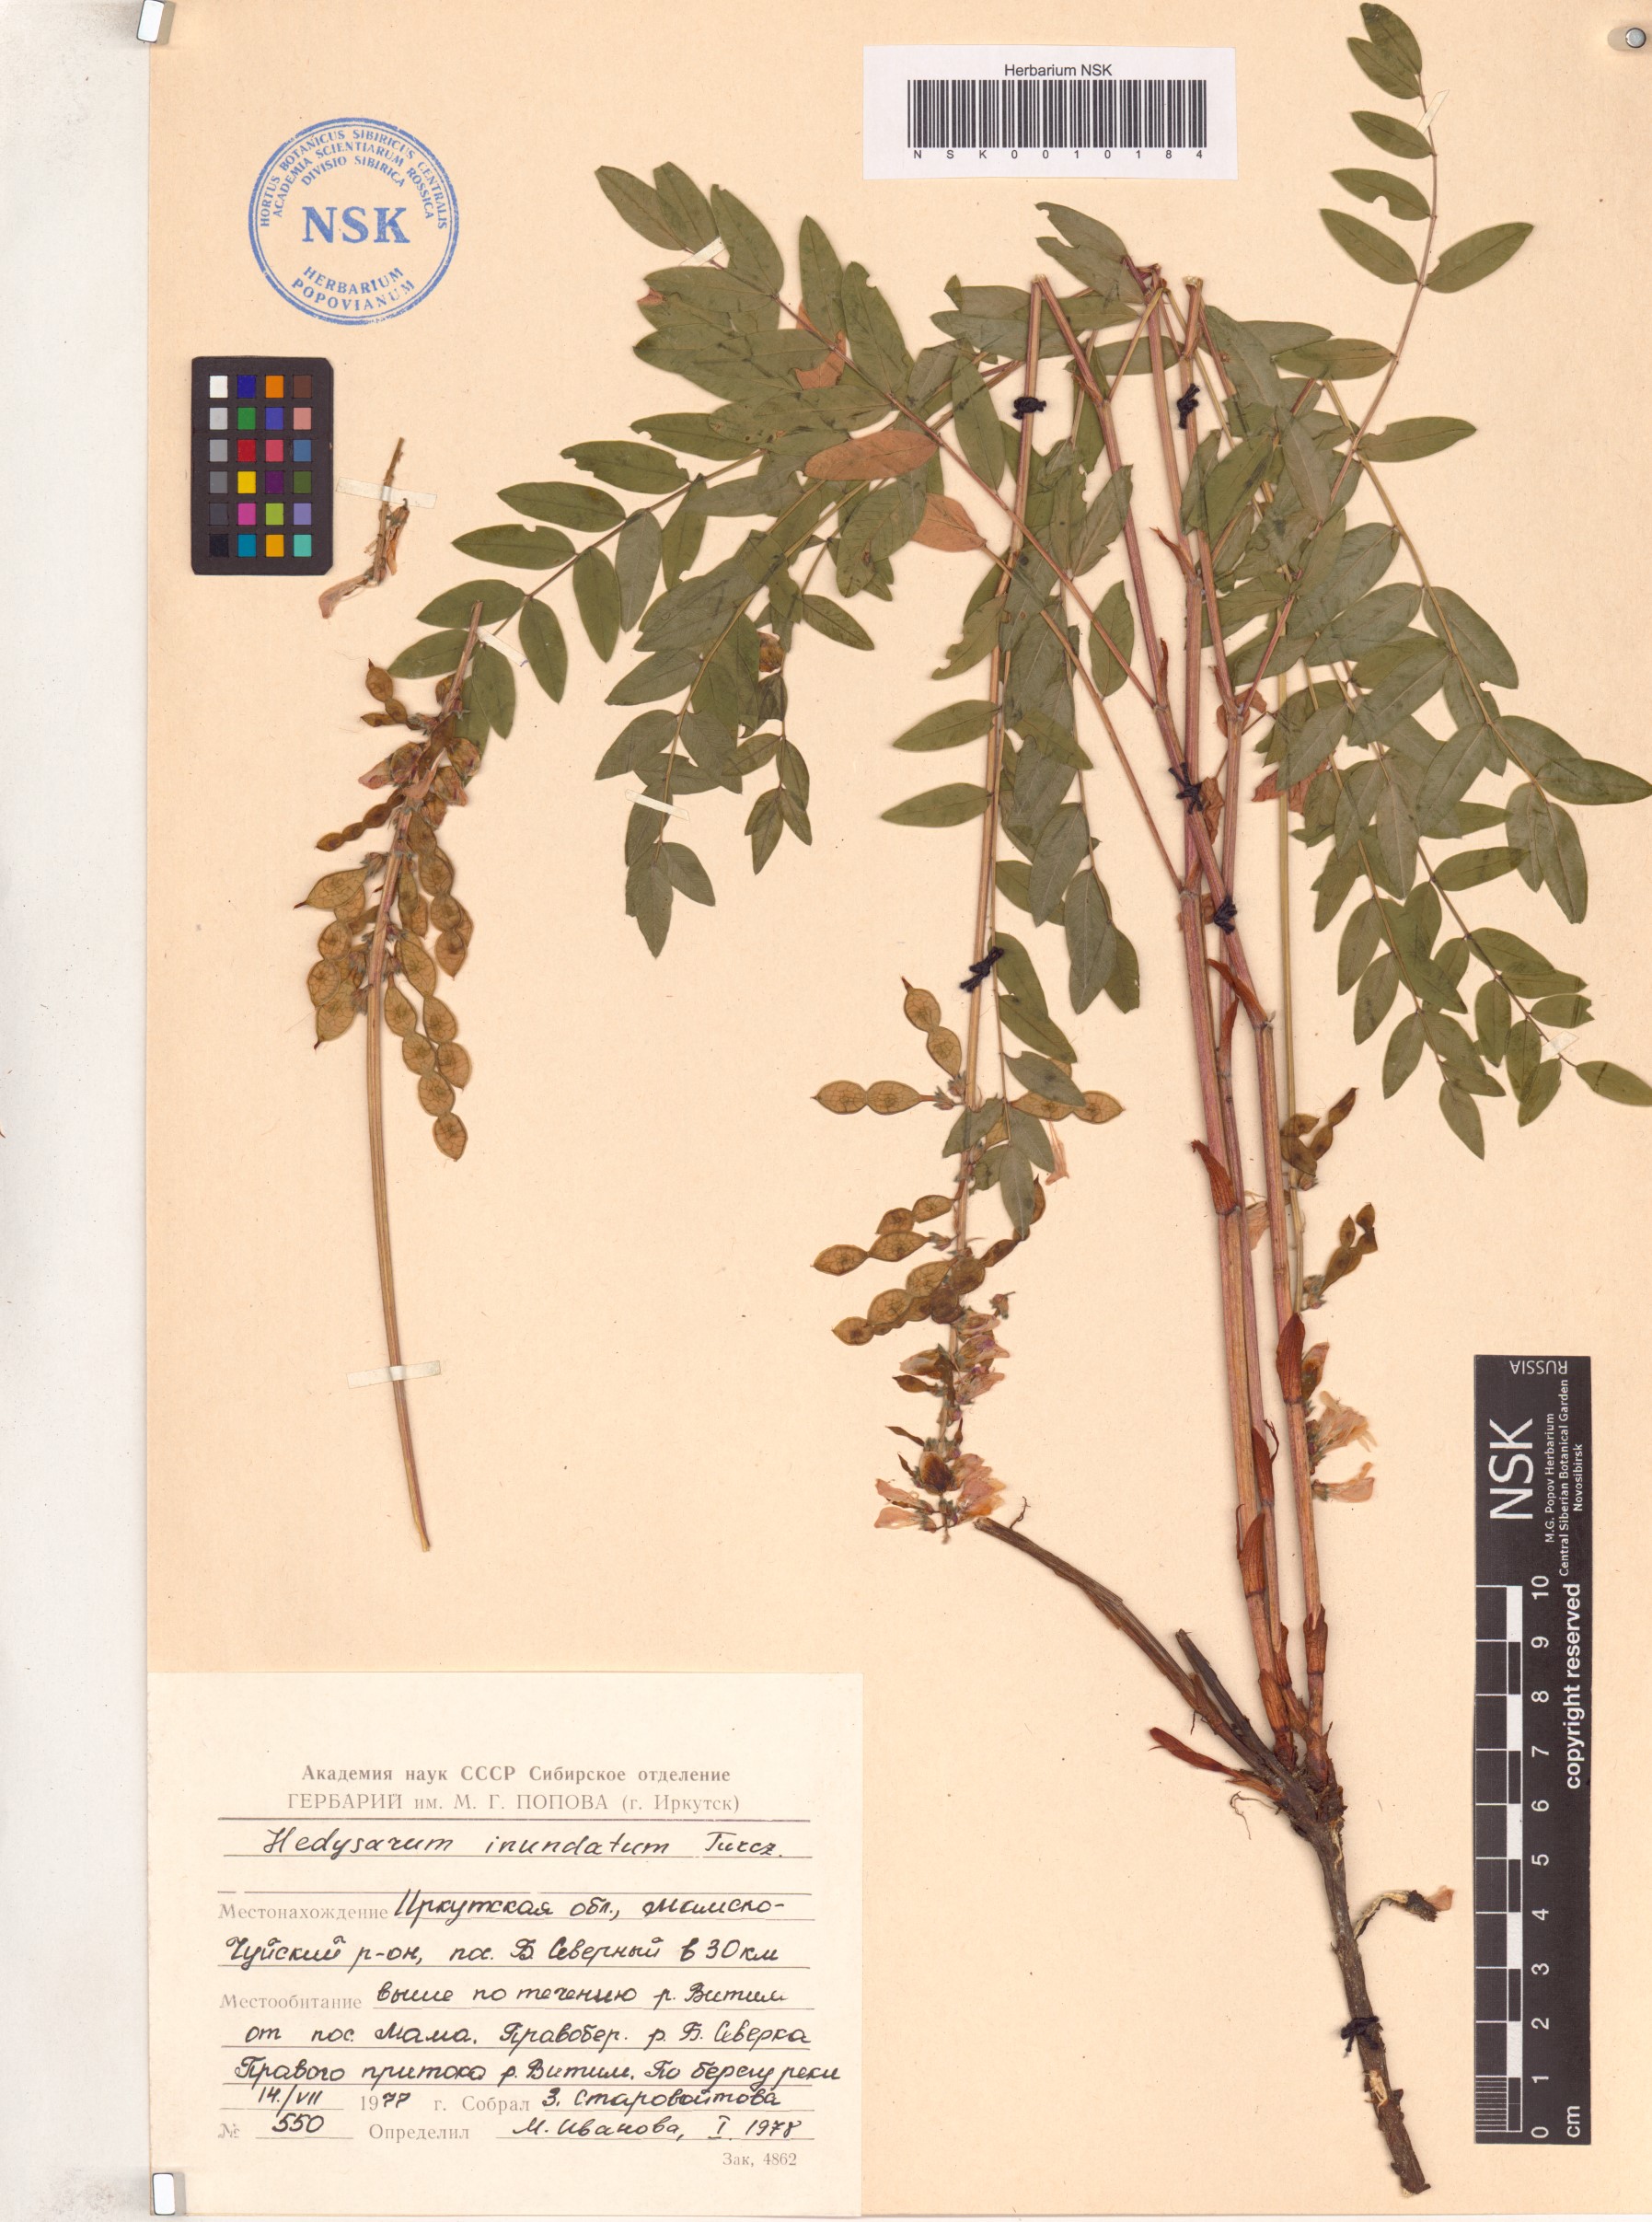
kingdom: Plantae
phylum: Tracheophyta
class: Magnoliopsida
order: Fabales
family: Fabaceae
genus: Hedysarum
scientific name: Hedysarum inundatum
